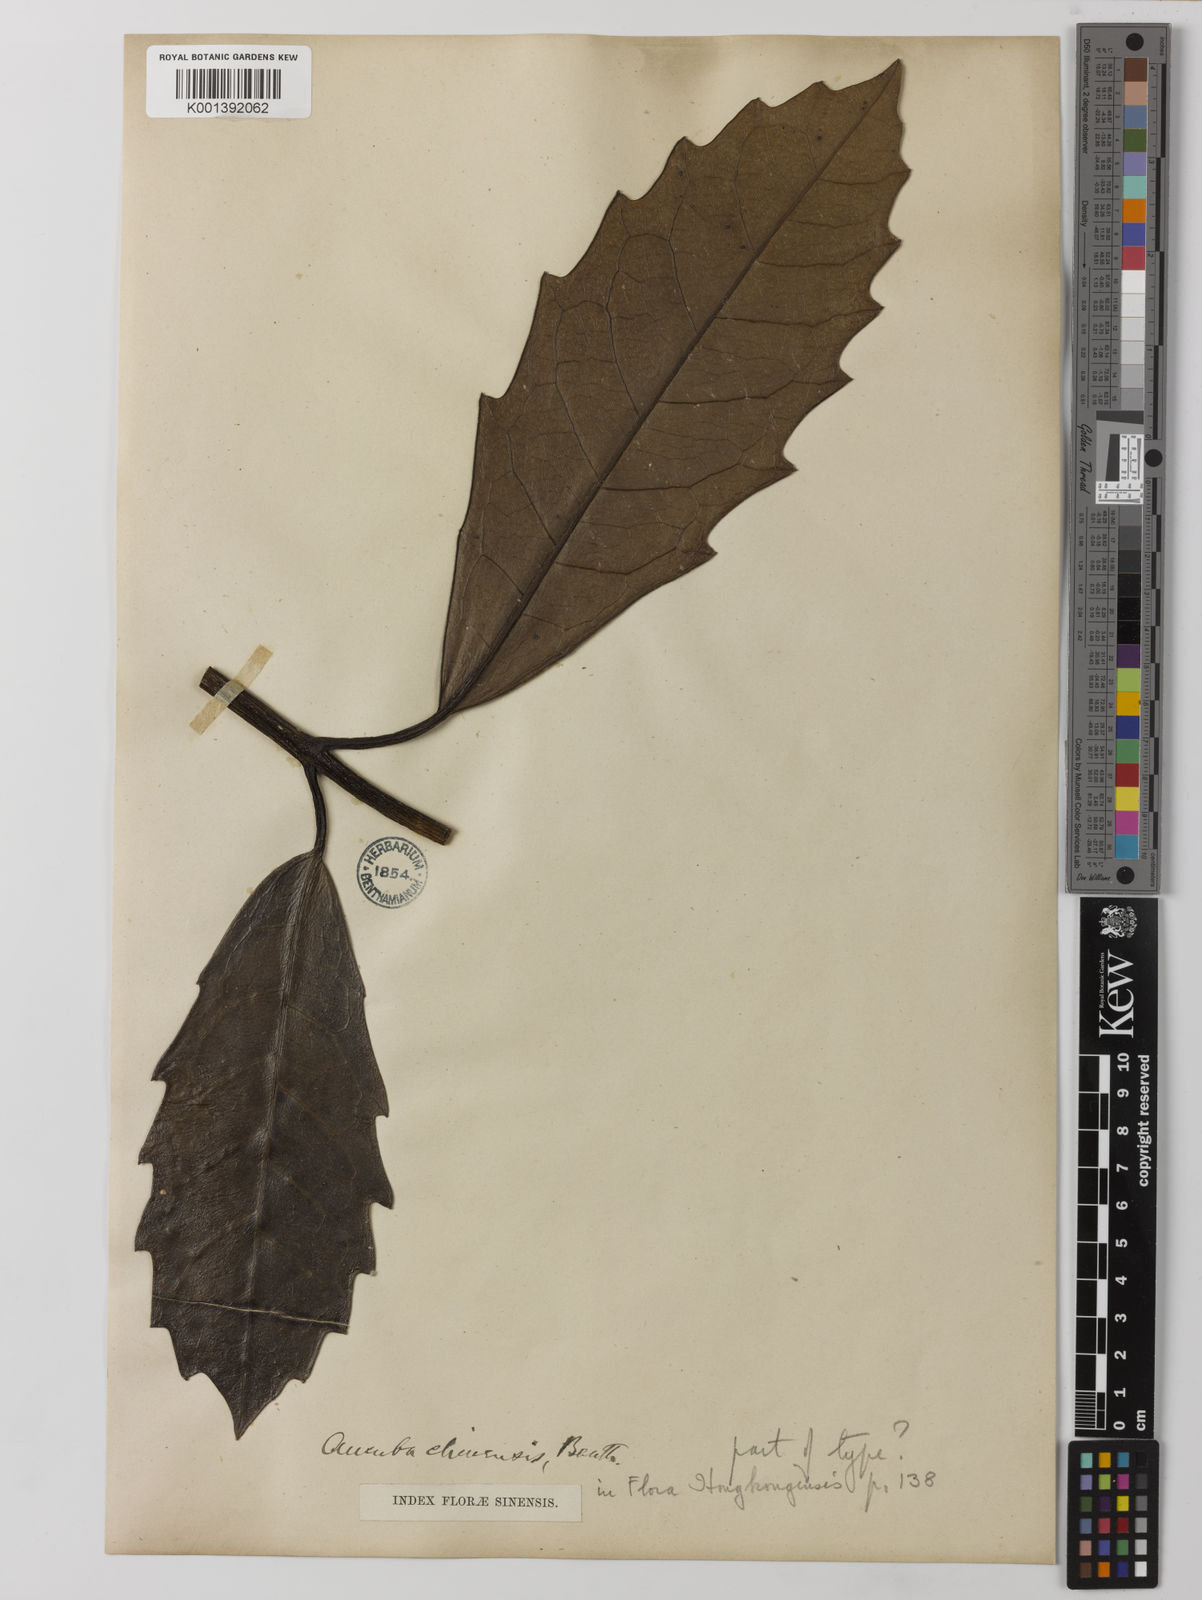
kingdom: Plantae
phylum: Tracheophyta
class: Magnoliopsida
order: Garryales
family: Garryaceae
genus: Aucuba
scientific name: Aucuba chinensis
